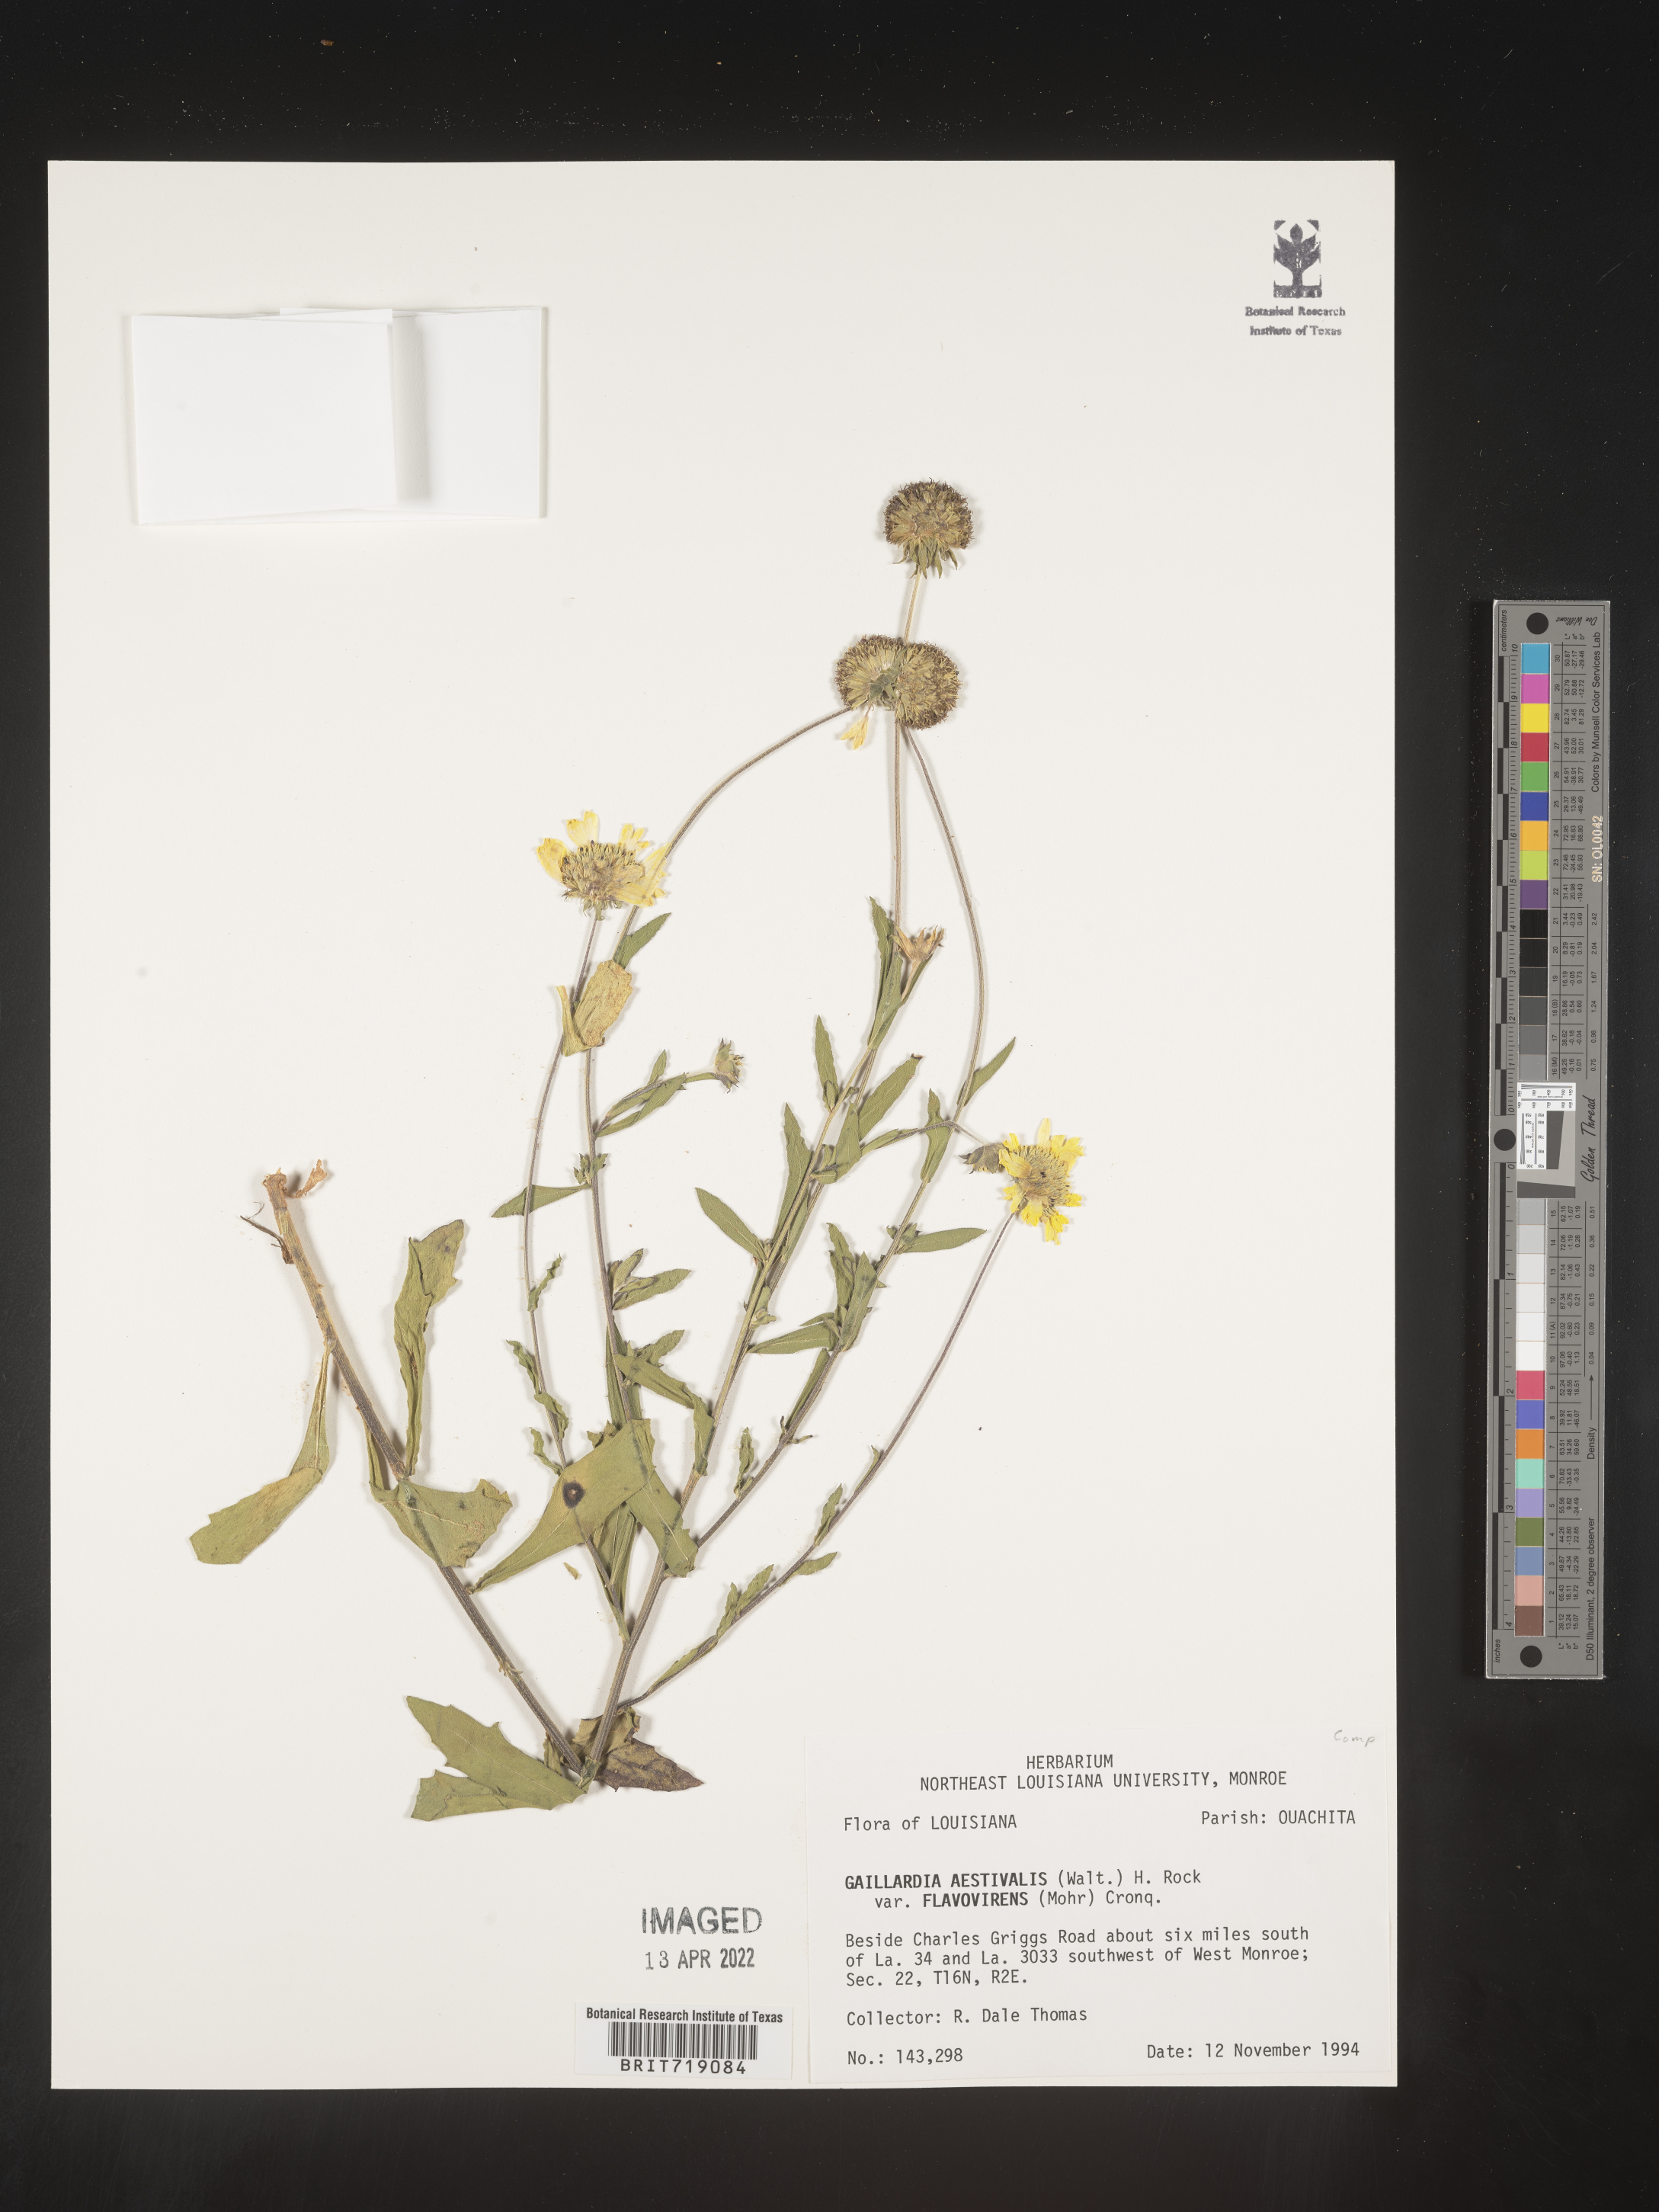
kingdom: Plantae
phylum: Tracheophyta
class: Magnoliopsida
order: Asterales
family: Asteraceae
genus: Gaillardia
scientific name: Gaillardia aestivalis
